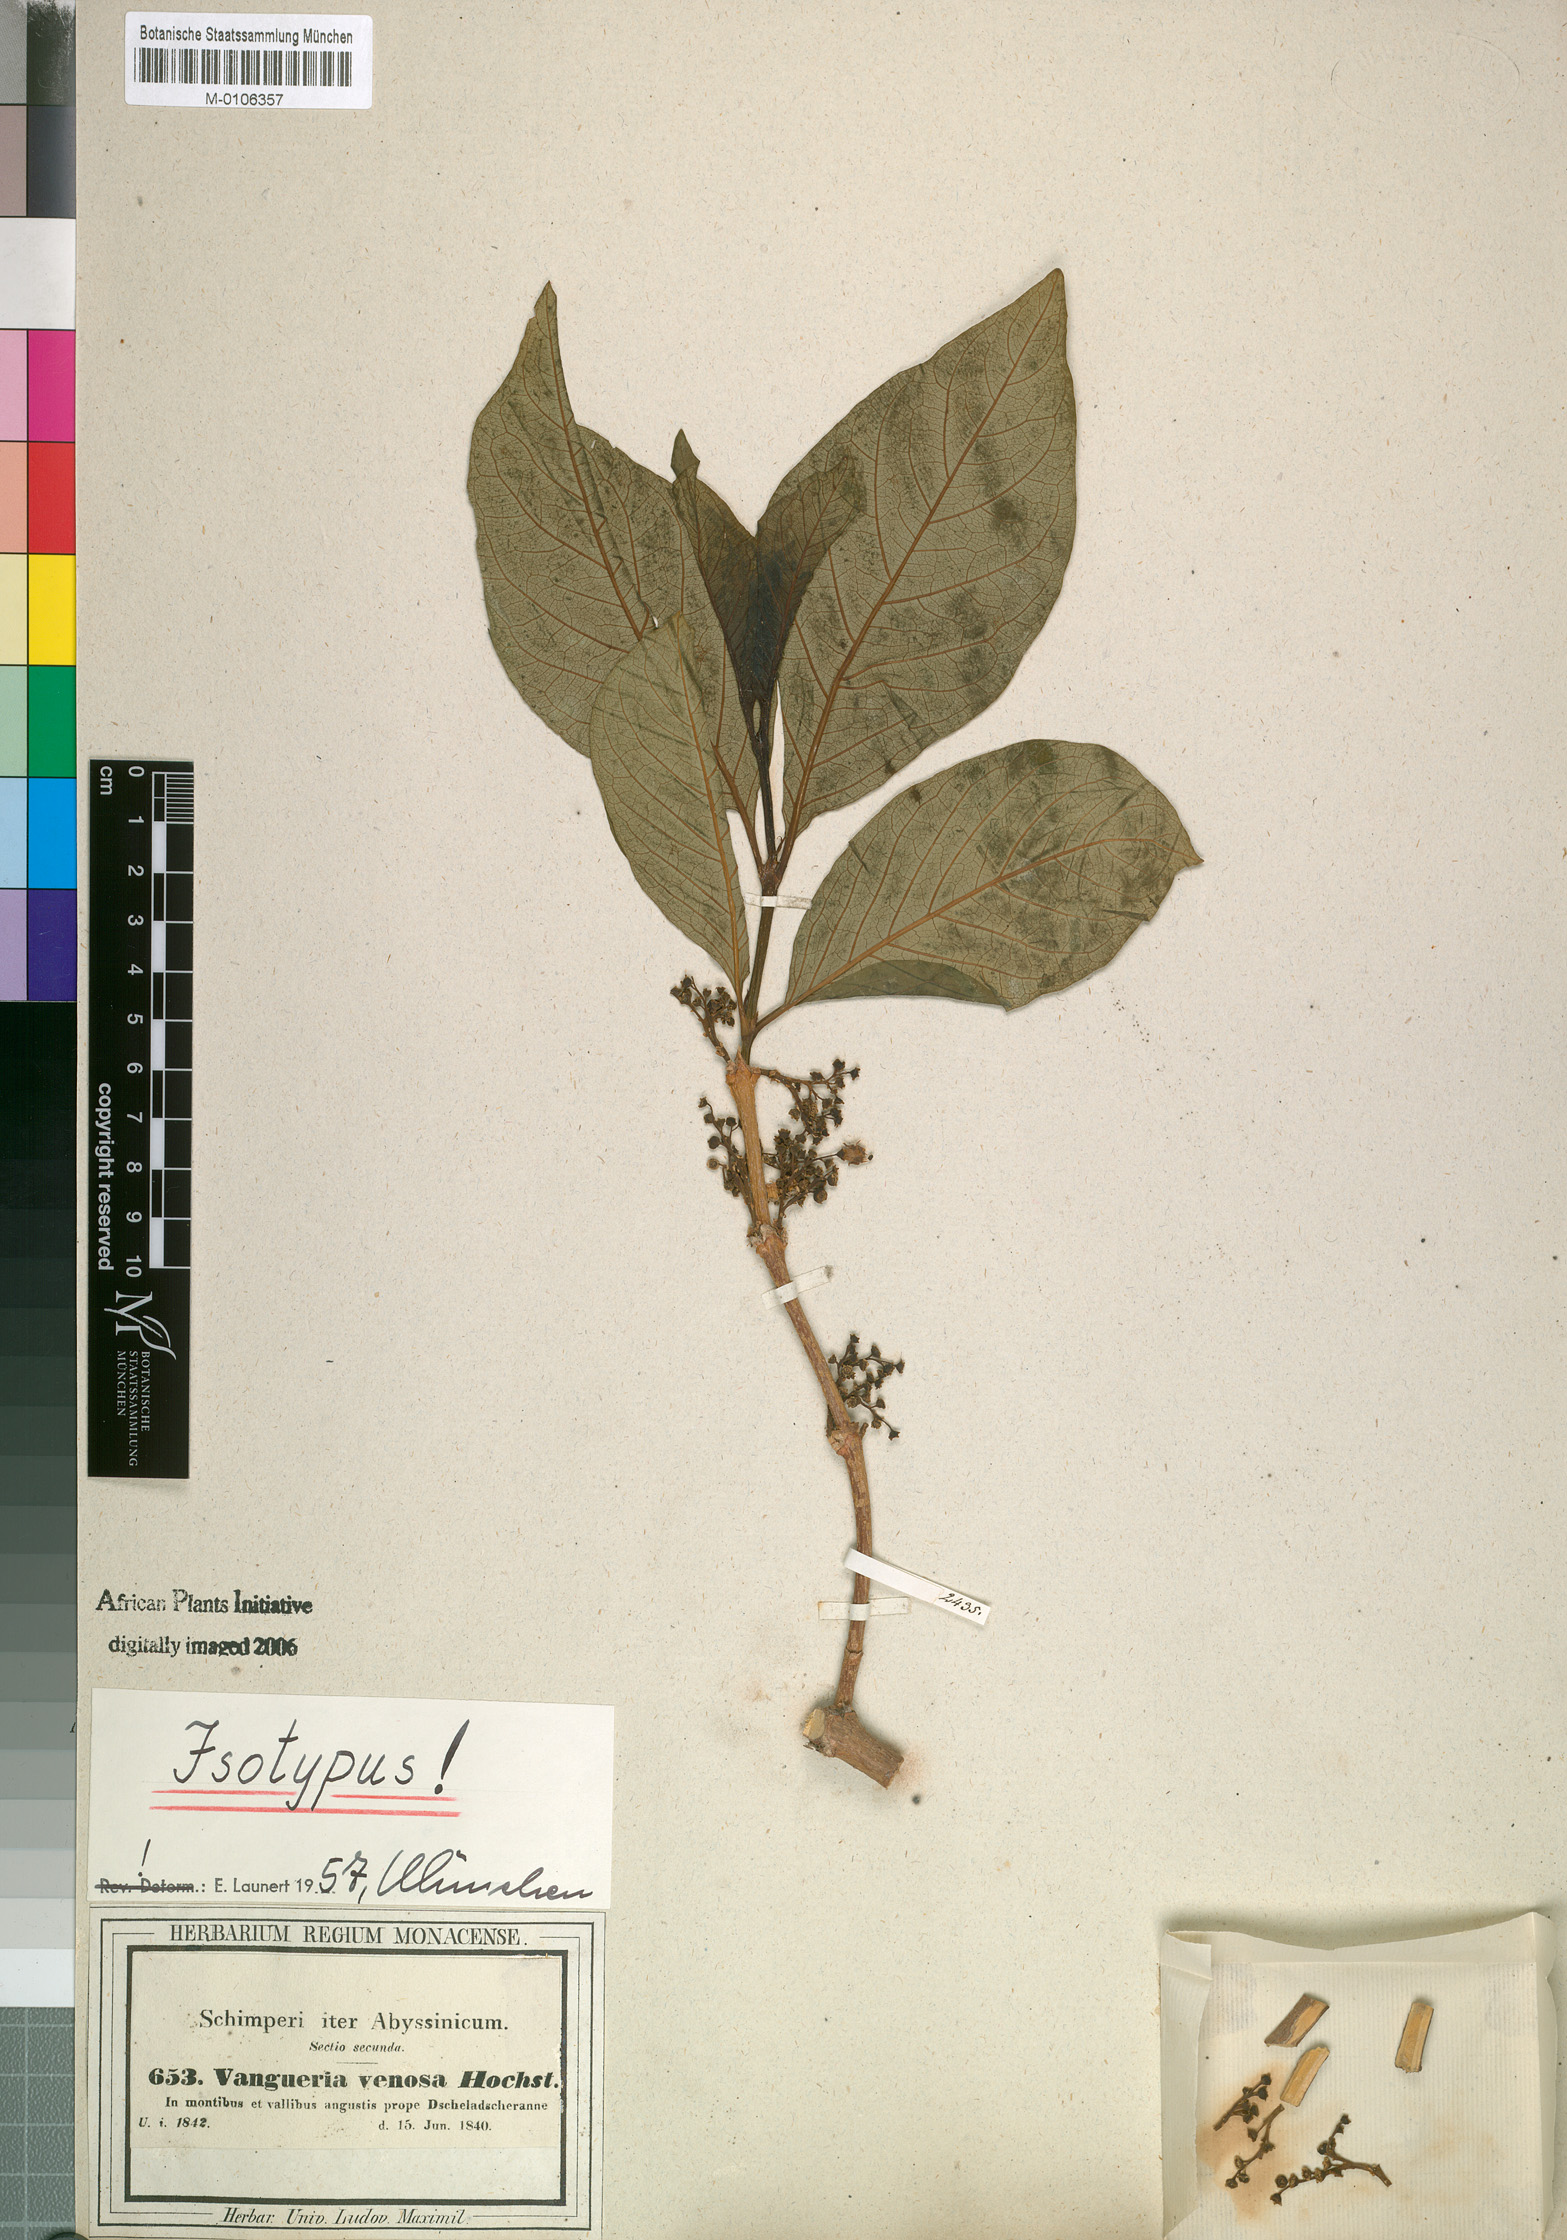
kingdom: Plantae
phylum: Tracheophyta
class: Magnoliopsida
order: Gentianales
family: Rubiaceae
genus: Vangueria
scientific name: Vangueria madagascariensis
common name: Smooth wild-medlar
